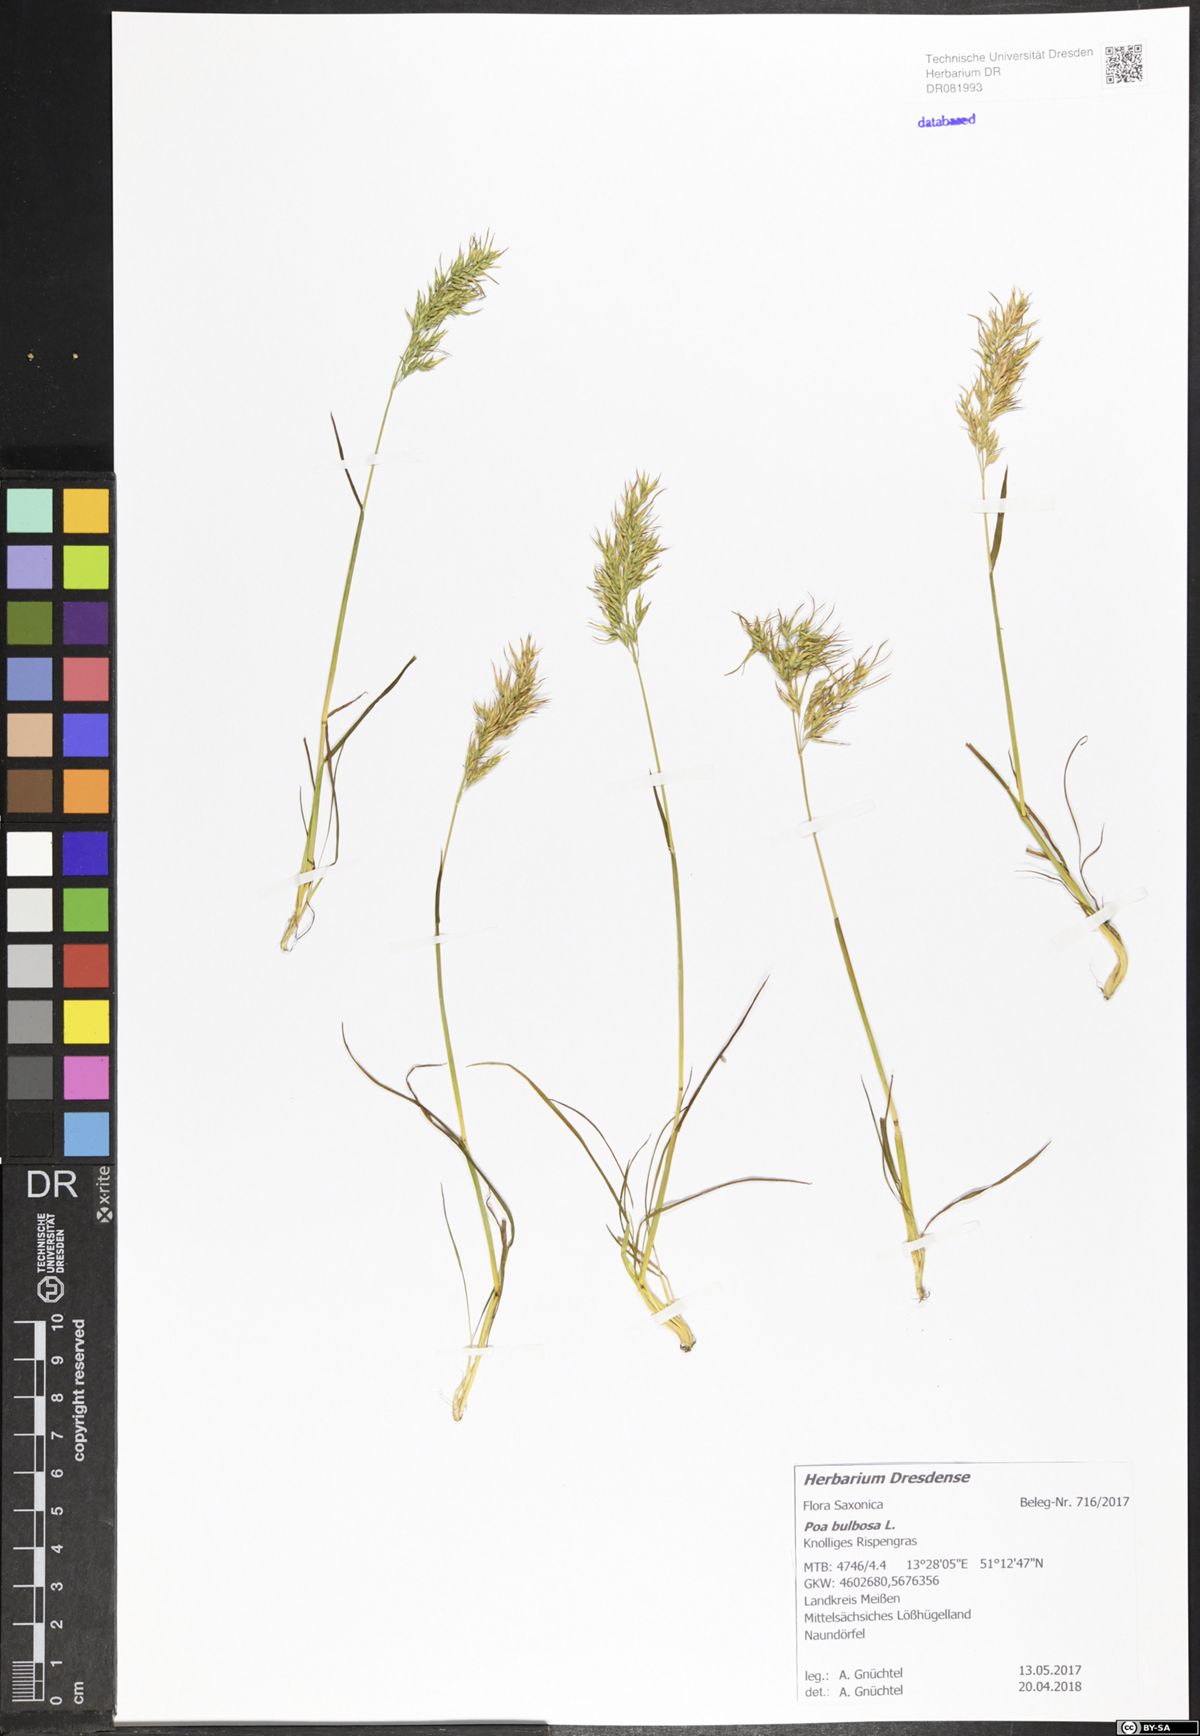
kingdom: Plantae
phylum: Tracheophyta
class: Liliopsida
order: Poales
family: Poaceae
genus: Poa
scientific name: Poa bulbosa
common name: Bulbous bluegrass
